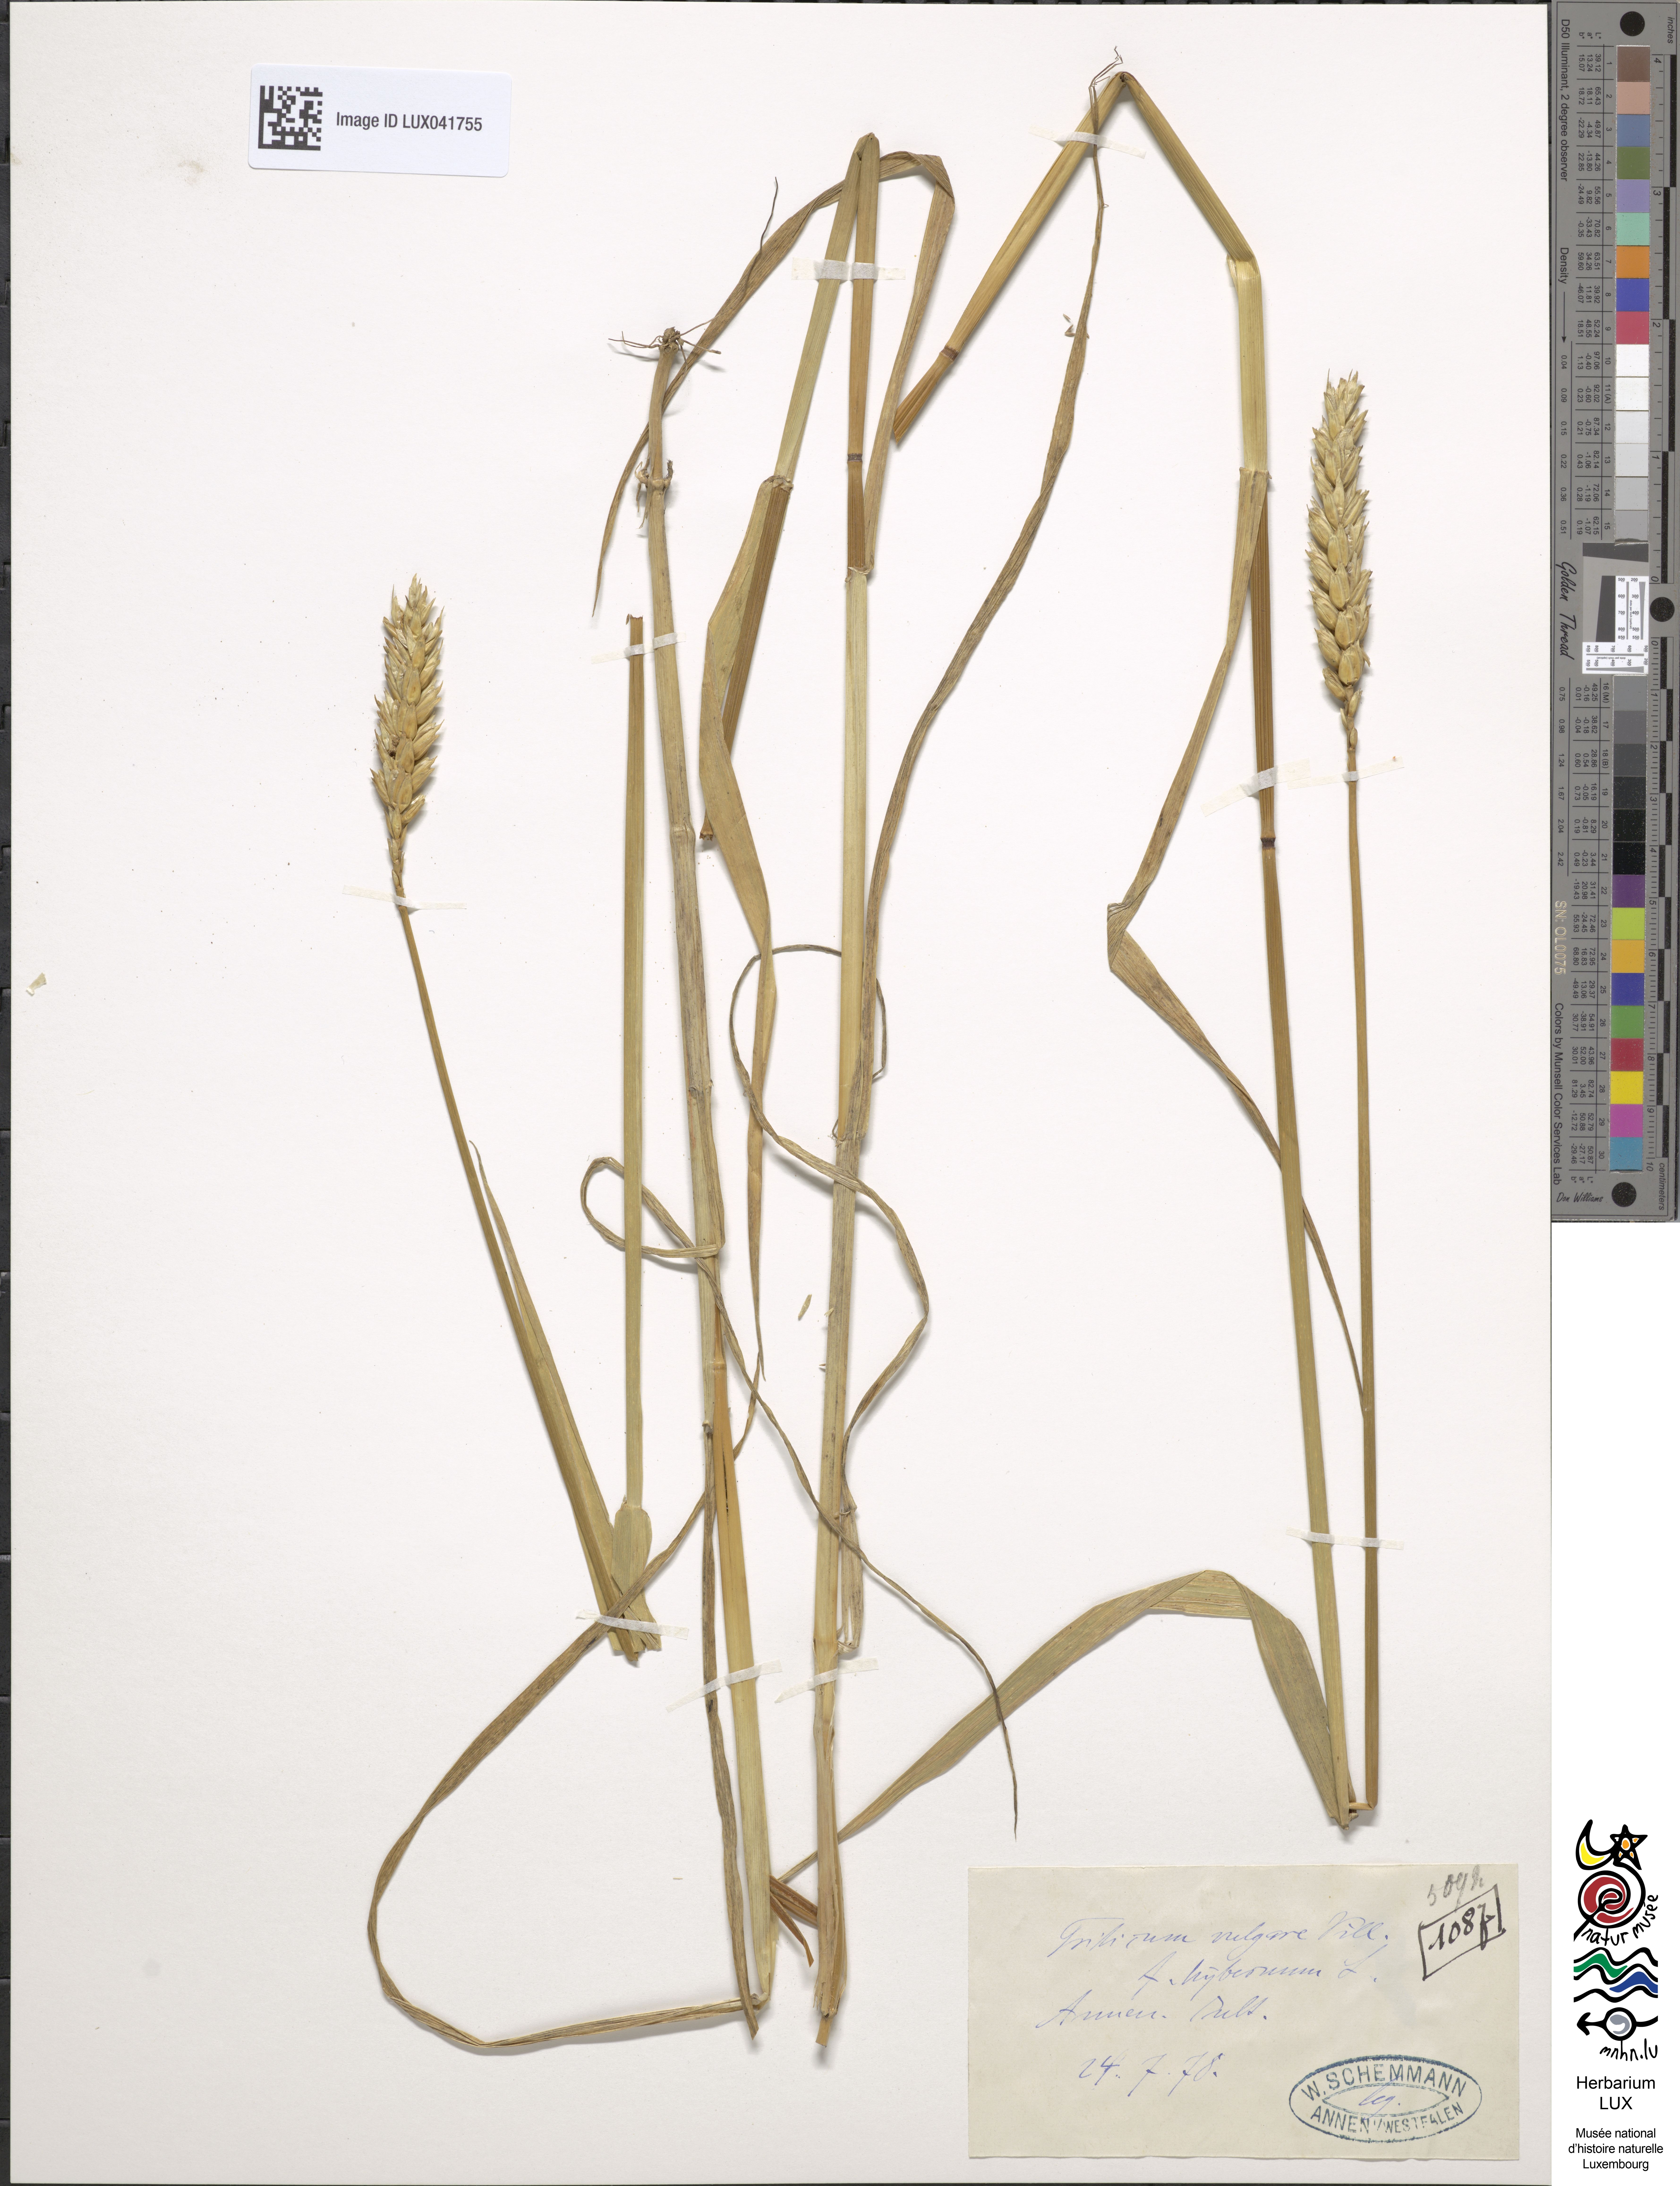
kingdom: Plantae
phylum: Tracheophyta
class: Liliopsida
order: Poales
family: Poaceae
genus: Triticum
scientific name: Triticum aestivum
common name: Common wheat
